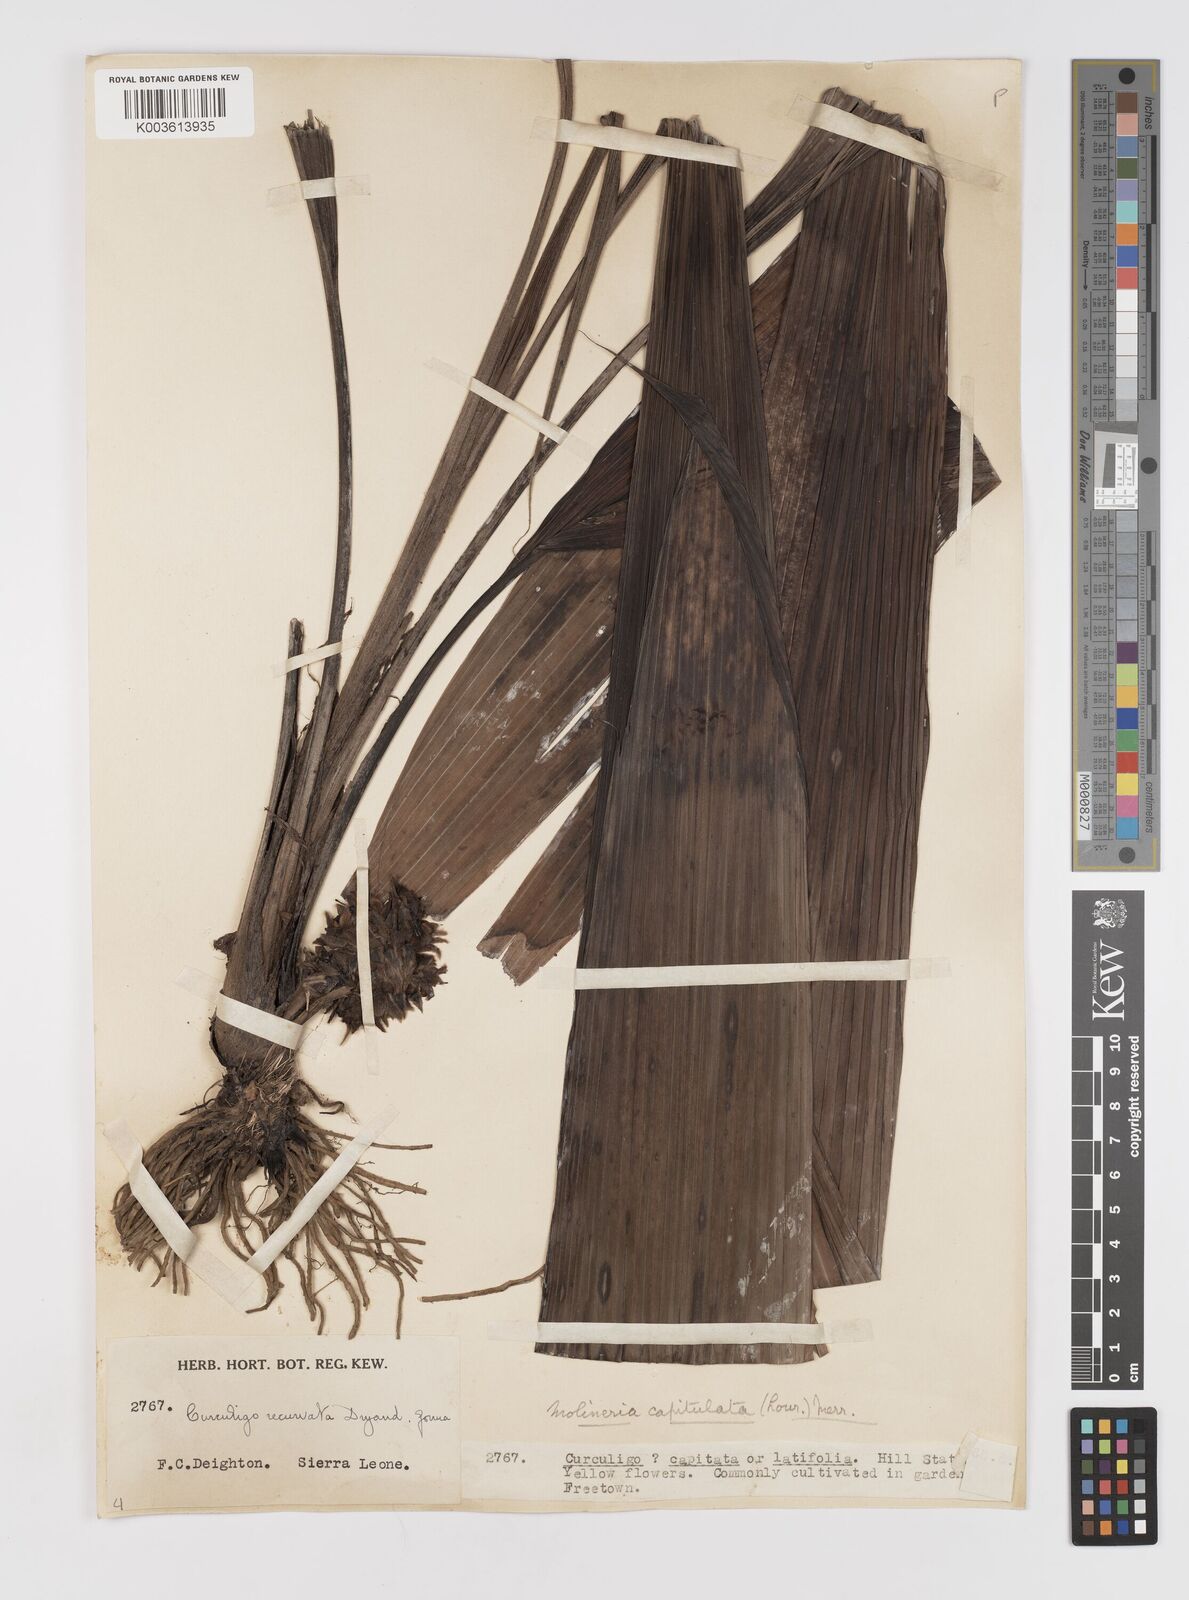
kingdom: Plantae
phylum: Tracheophyta
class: Liliopsida
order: Asparagales
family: Hypoxidaceae
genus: Curculigo
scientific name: Curculigo capitulata
